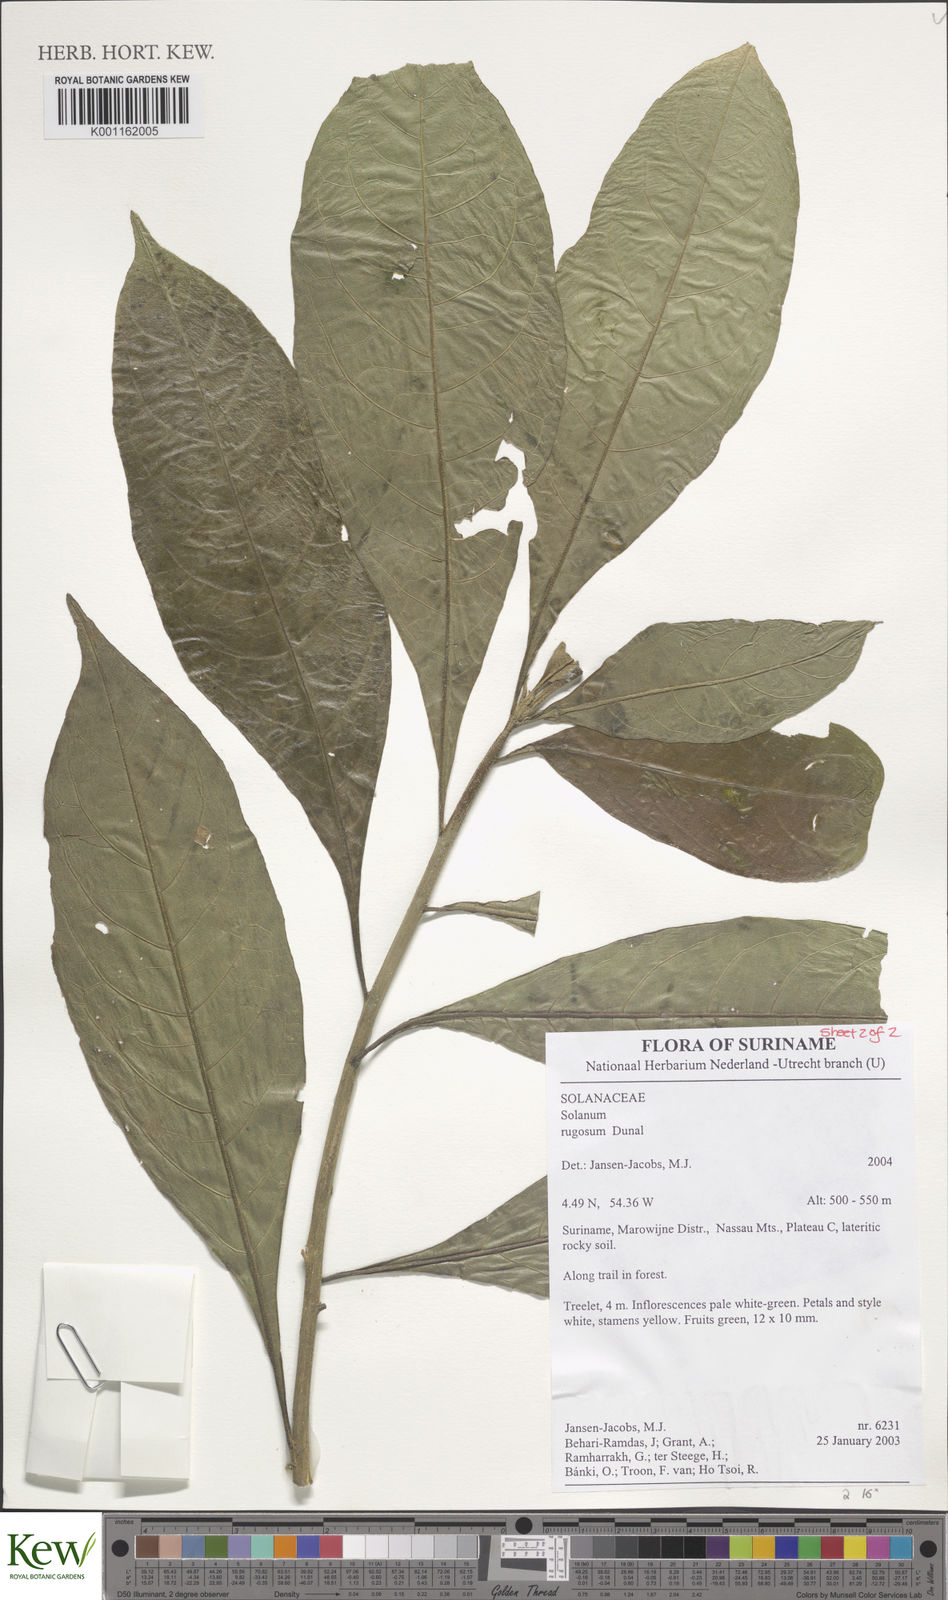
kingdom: Plantae
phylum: Tracheophyta
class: Magnoliopsida
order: Solanales
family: Solanaceae
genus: Solanum
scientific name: Solanum rugosum
